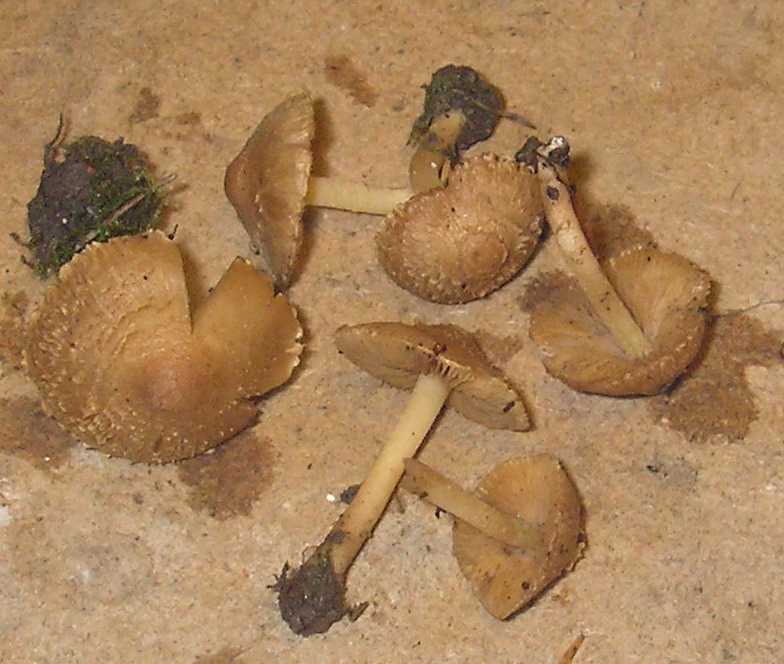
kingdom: Fungi
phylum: Basidiomycota
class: Agaricomycetes
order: Agaricales
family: Inocybaceae
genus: Inocybe
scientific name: Inocybe sindonia
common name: bleg trævlhat
